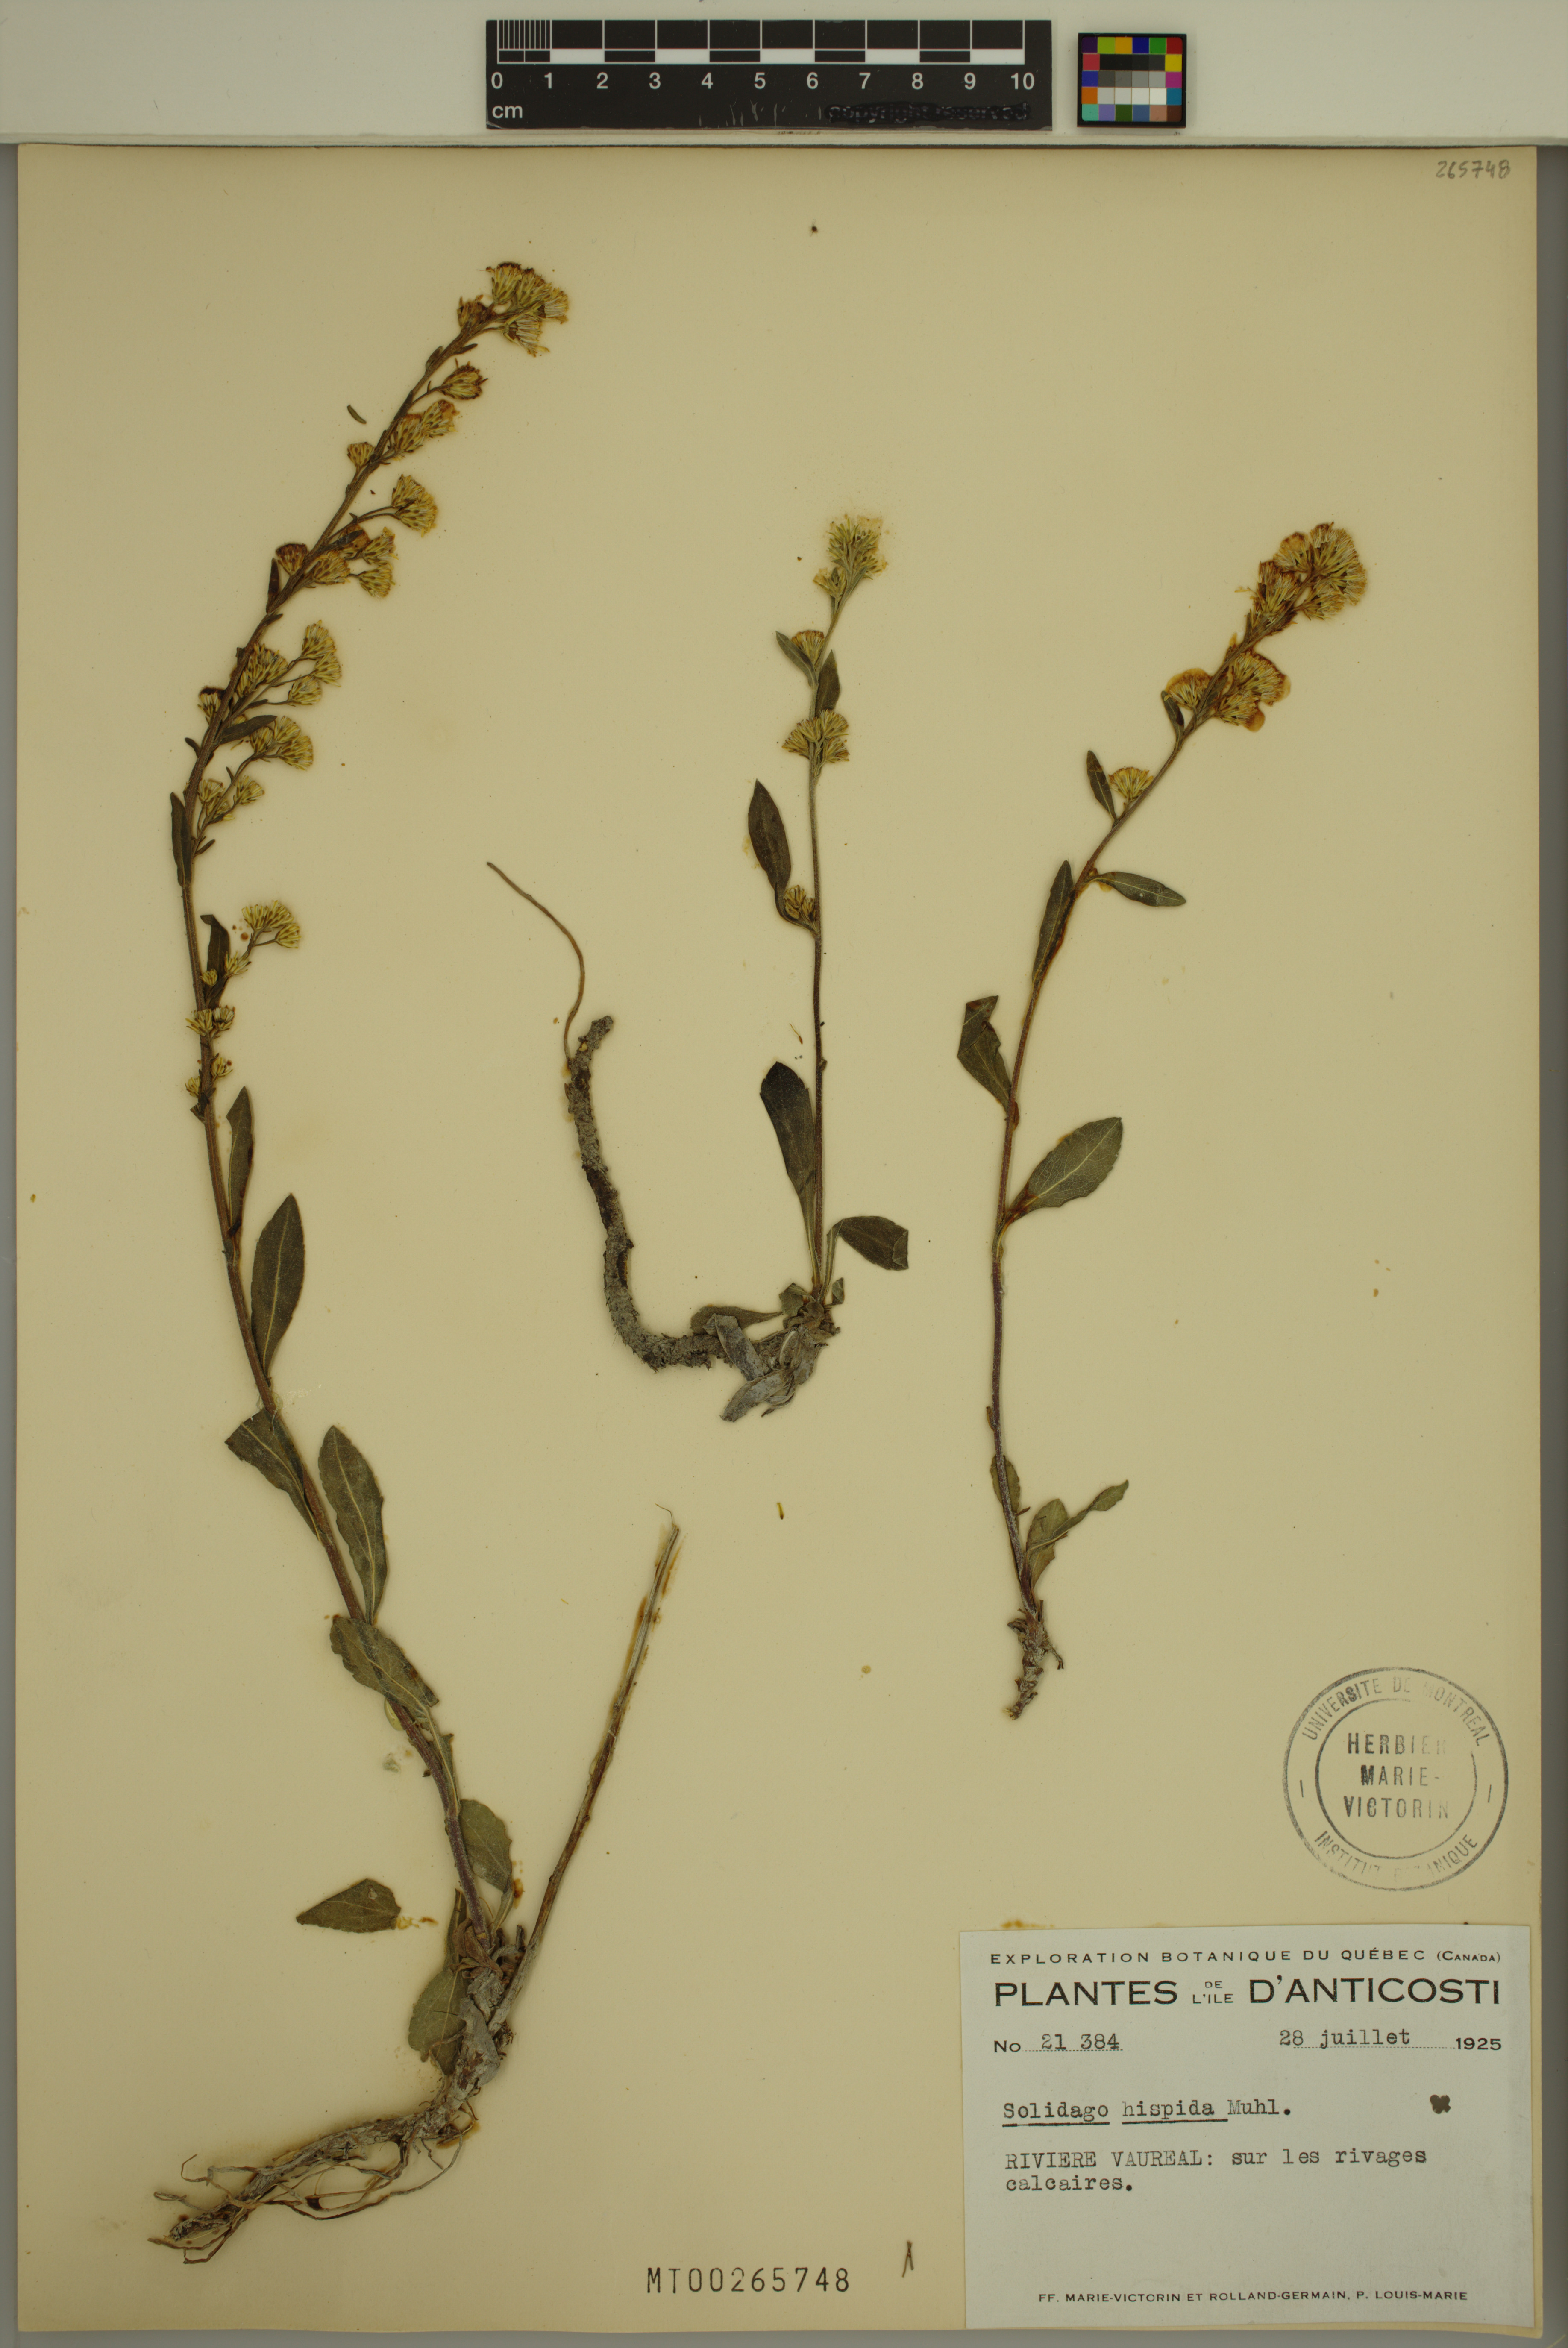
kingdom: Plantae
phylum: Tracheophyta
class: Magnoliopsida
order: Asterales
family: Asteraceae
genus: Solidago
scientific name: Solidago hispida
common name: Hairy goldenrod
